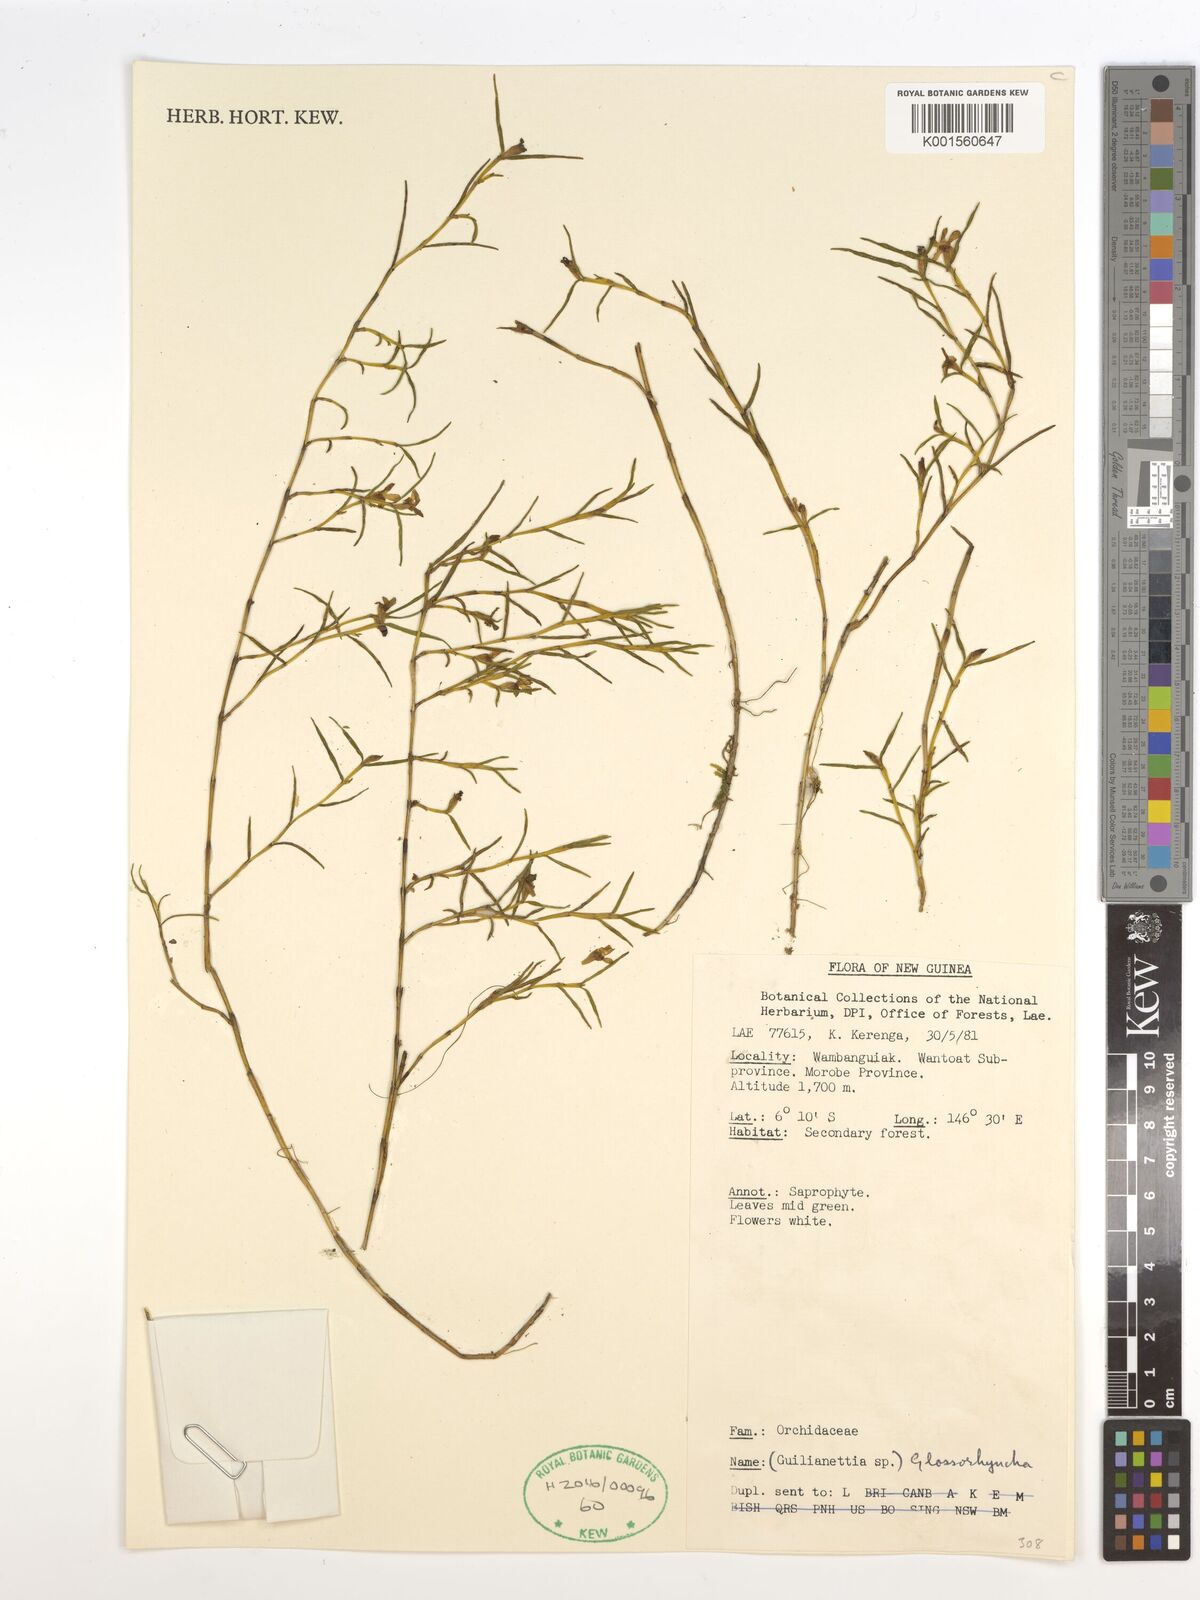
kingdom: Plantae
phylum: Tracheophyta
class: Liliopsida
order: Asparagales
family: Orchidaceae
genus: Glomera
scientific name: Glomera
